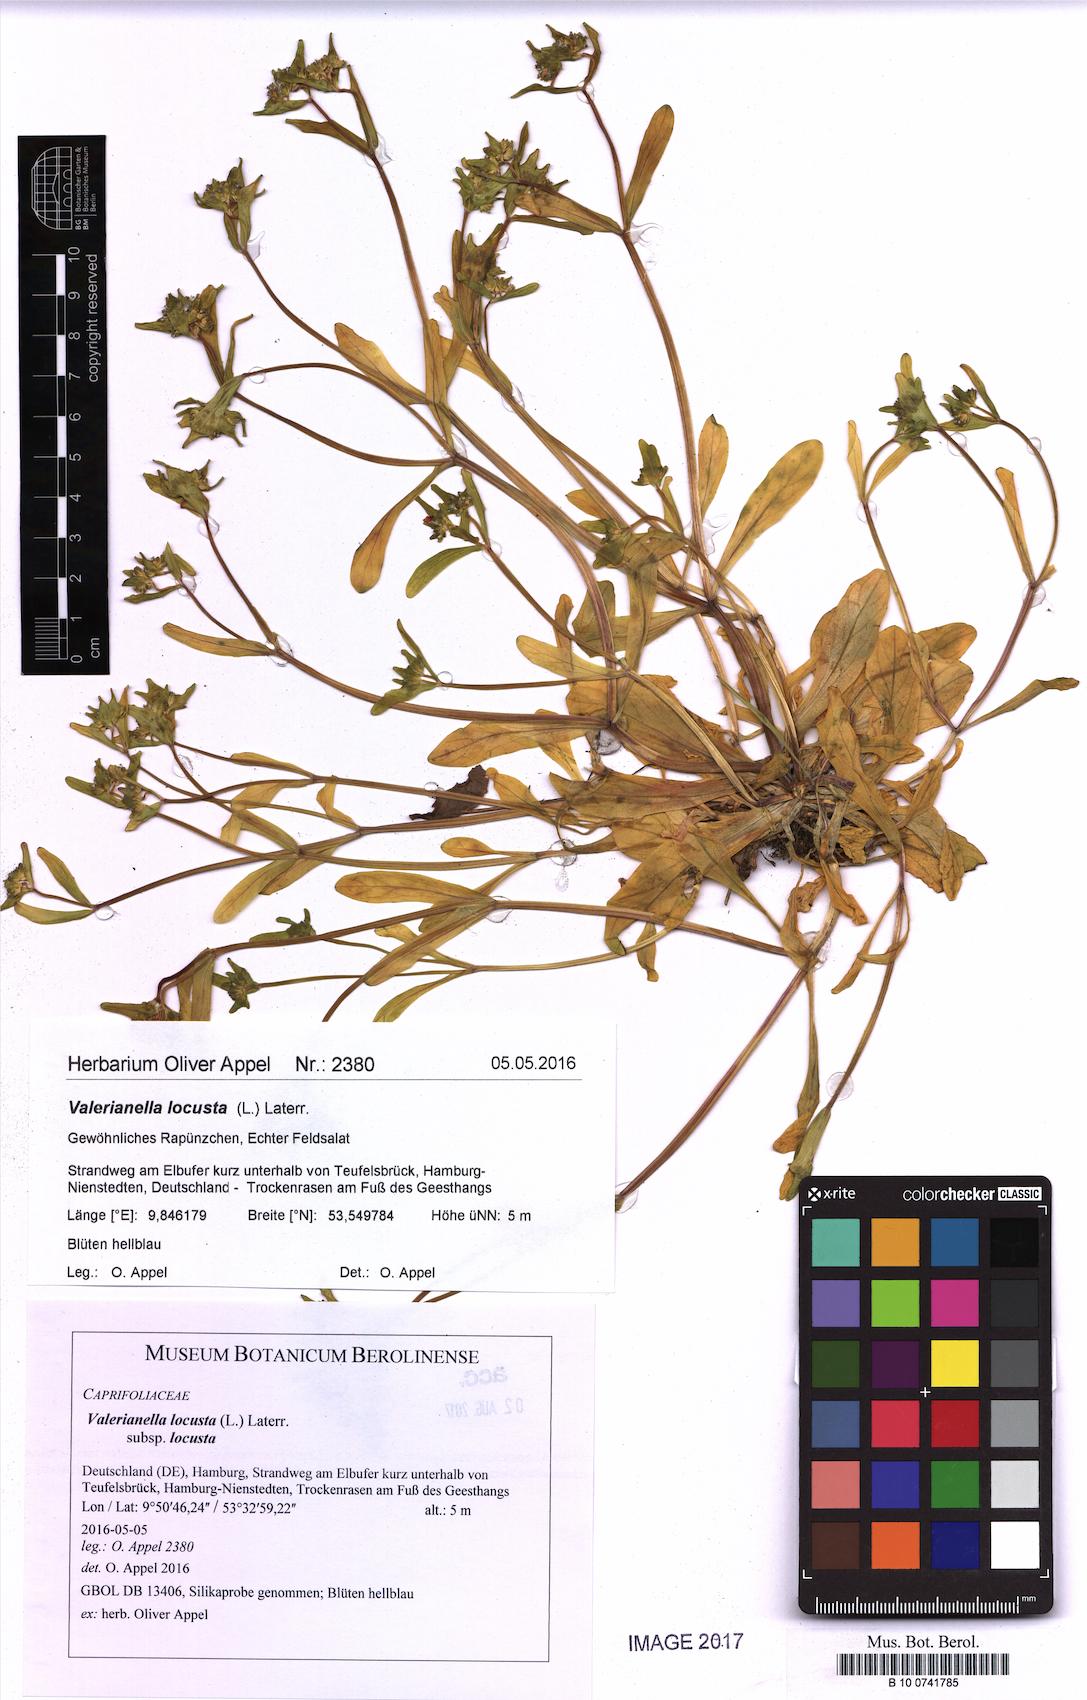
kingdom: Plantae
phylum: Tracheophyta
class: Magnoliopsida
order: Dipsacales
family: Caprifoliaceae
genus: Valerianella
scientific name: Valerianella locusta
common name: Common cornsalad
